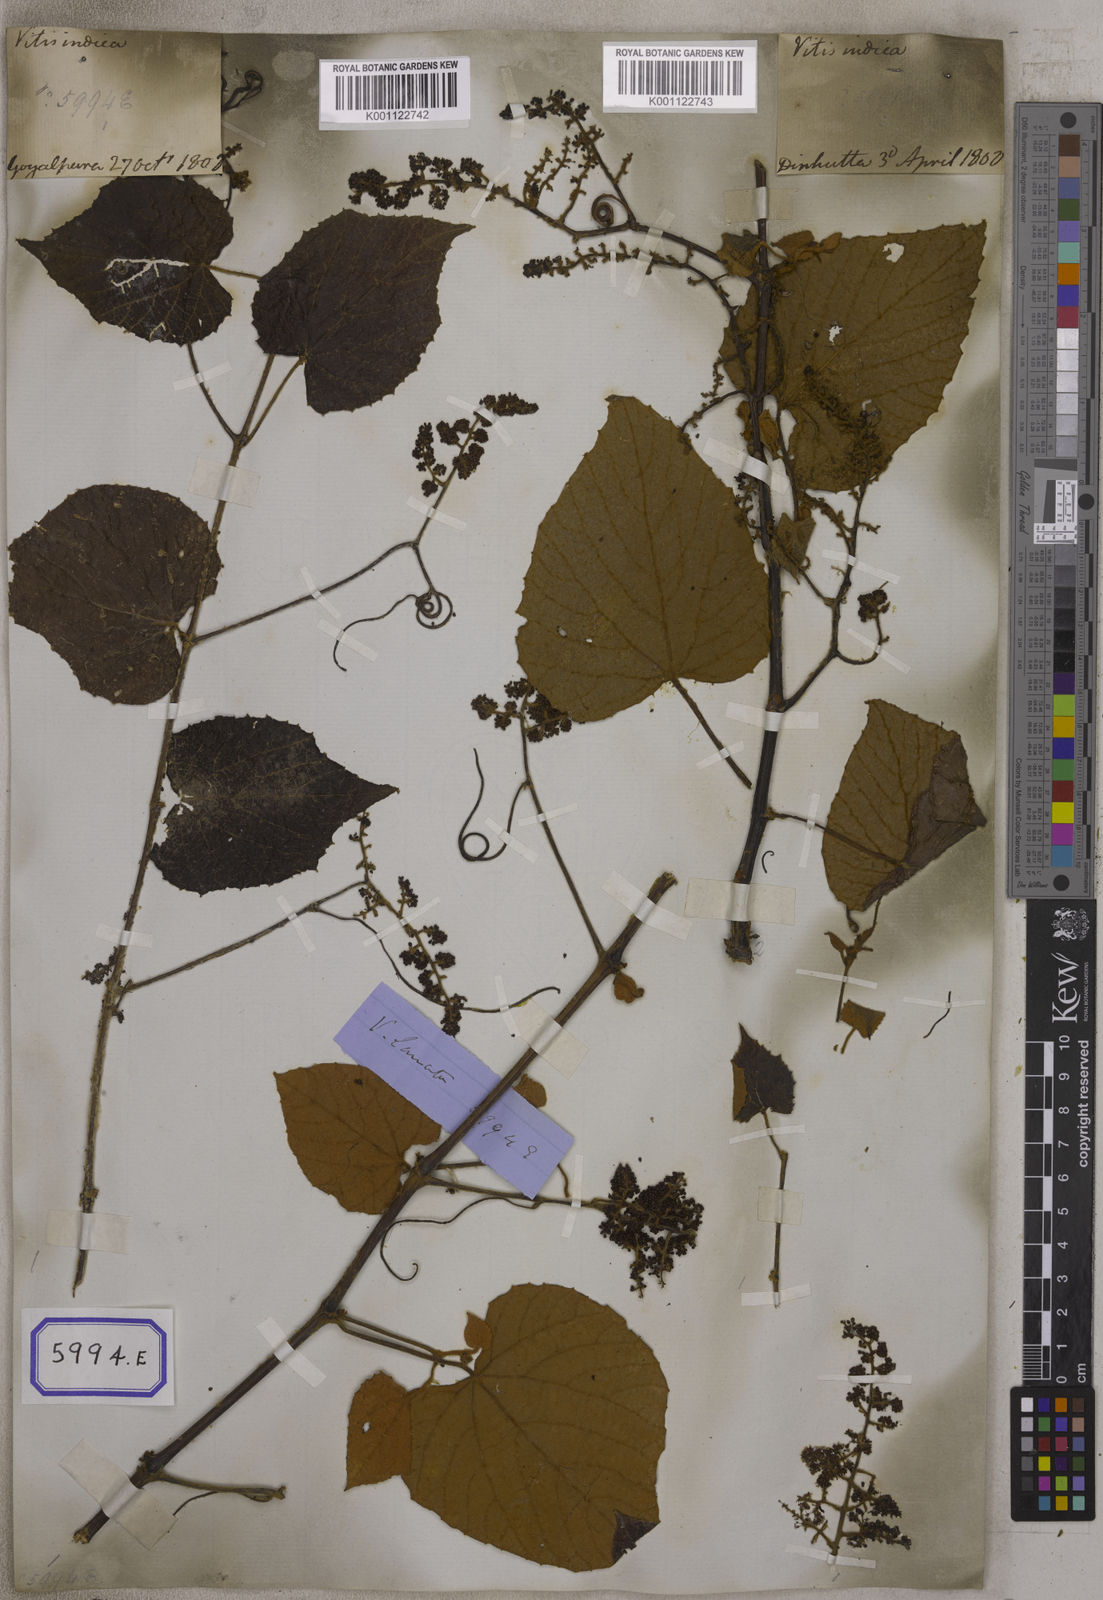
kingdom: Plantae
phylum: Tracheophyta
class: Magnoliopsida
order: Vitales
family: Vitaceae
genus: Ampelocissus
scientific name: Ampelocissus rugosa
